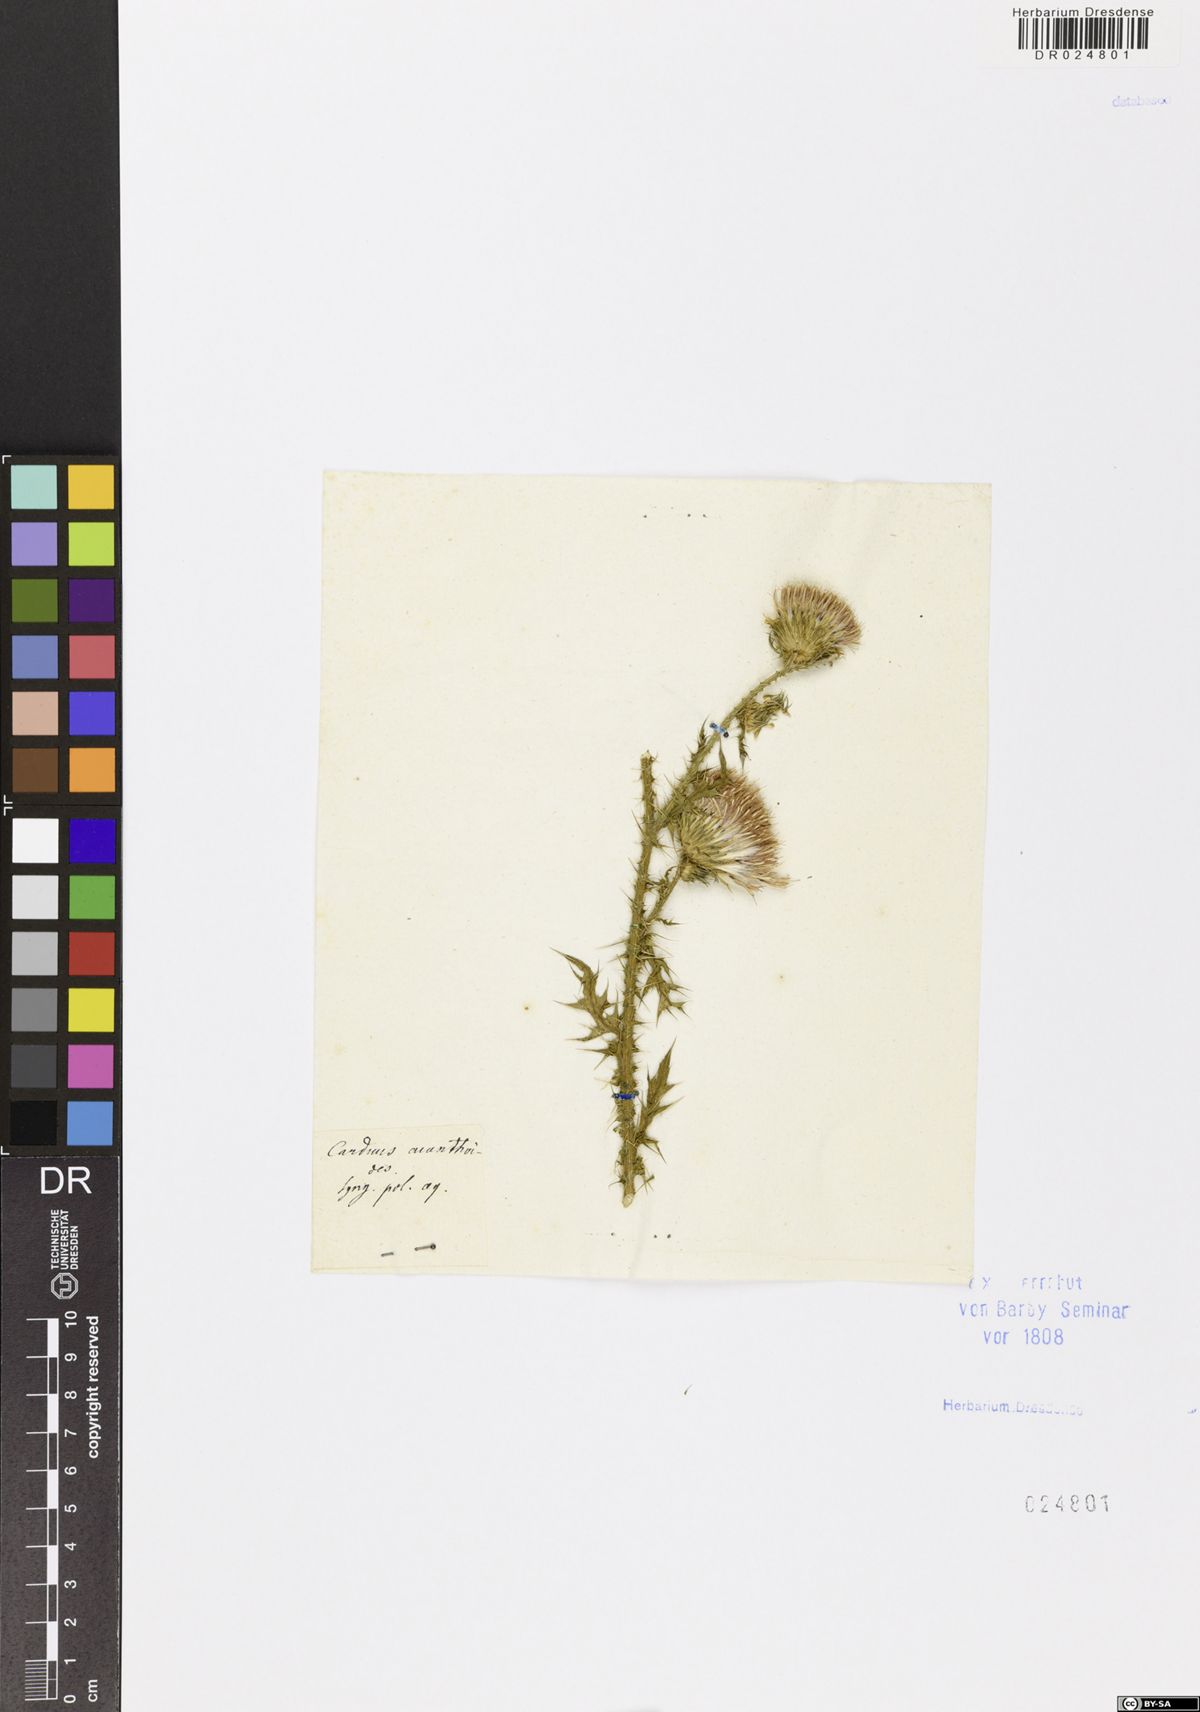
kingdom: Plantae
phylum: Tracheophyta
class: Magnoliopsida
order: Asterales
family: Asteraceae
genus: Carduus
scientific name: Carduus acanthoides
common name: Plumeless thistle
